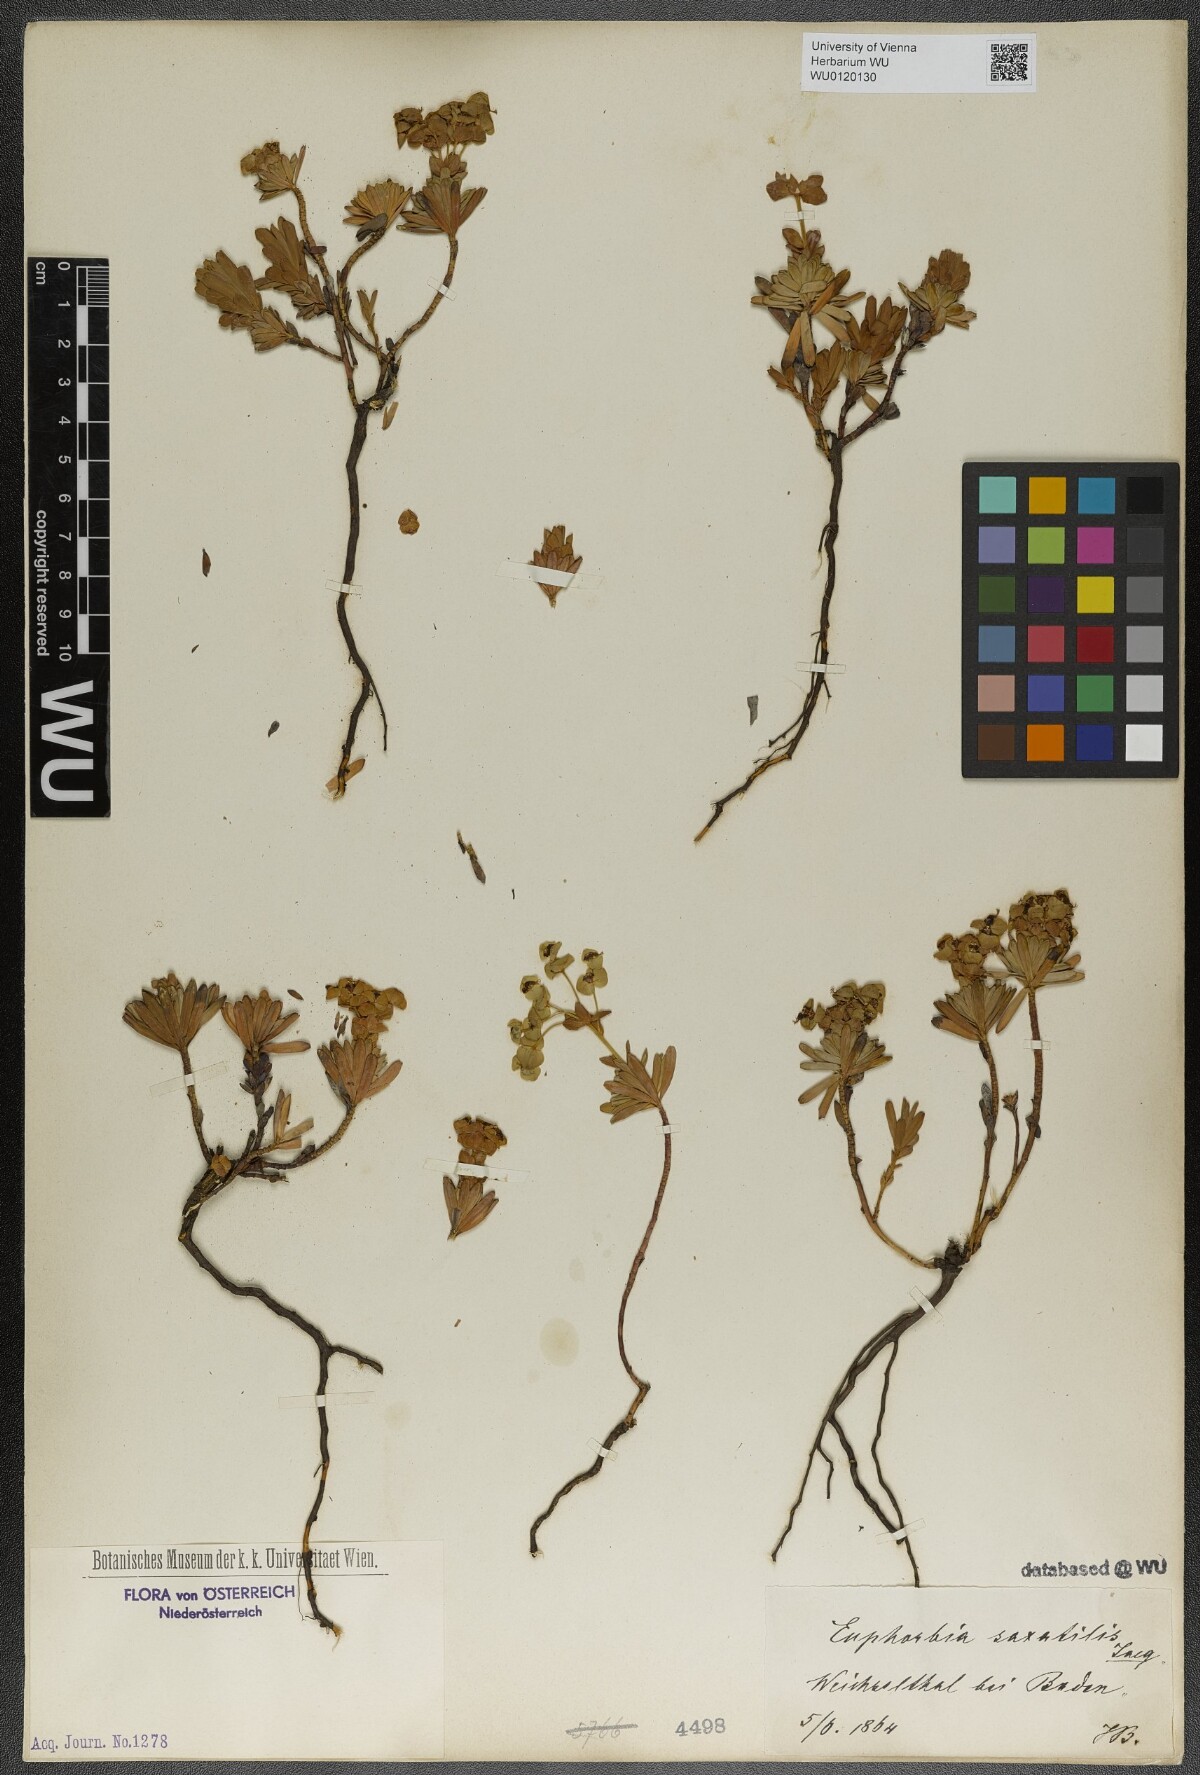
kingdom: Plantae
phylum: Tracheophyta
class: Magnoliopsida
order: Malpighiales
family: Euphorbiaceae
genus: Euphorbia
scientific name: Euphorbia saxatilis
